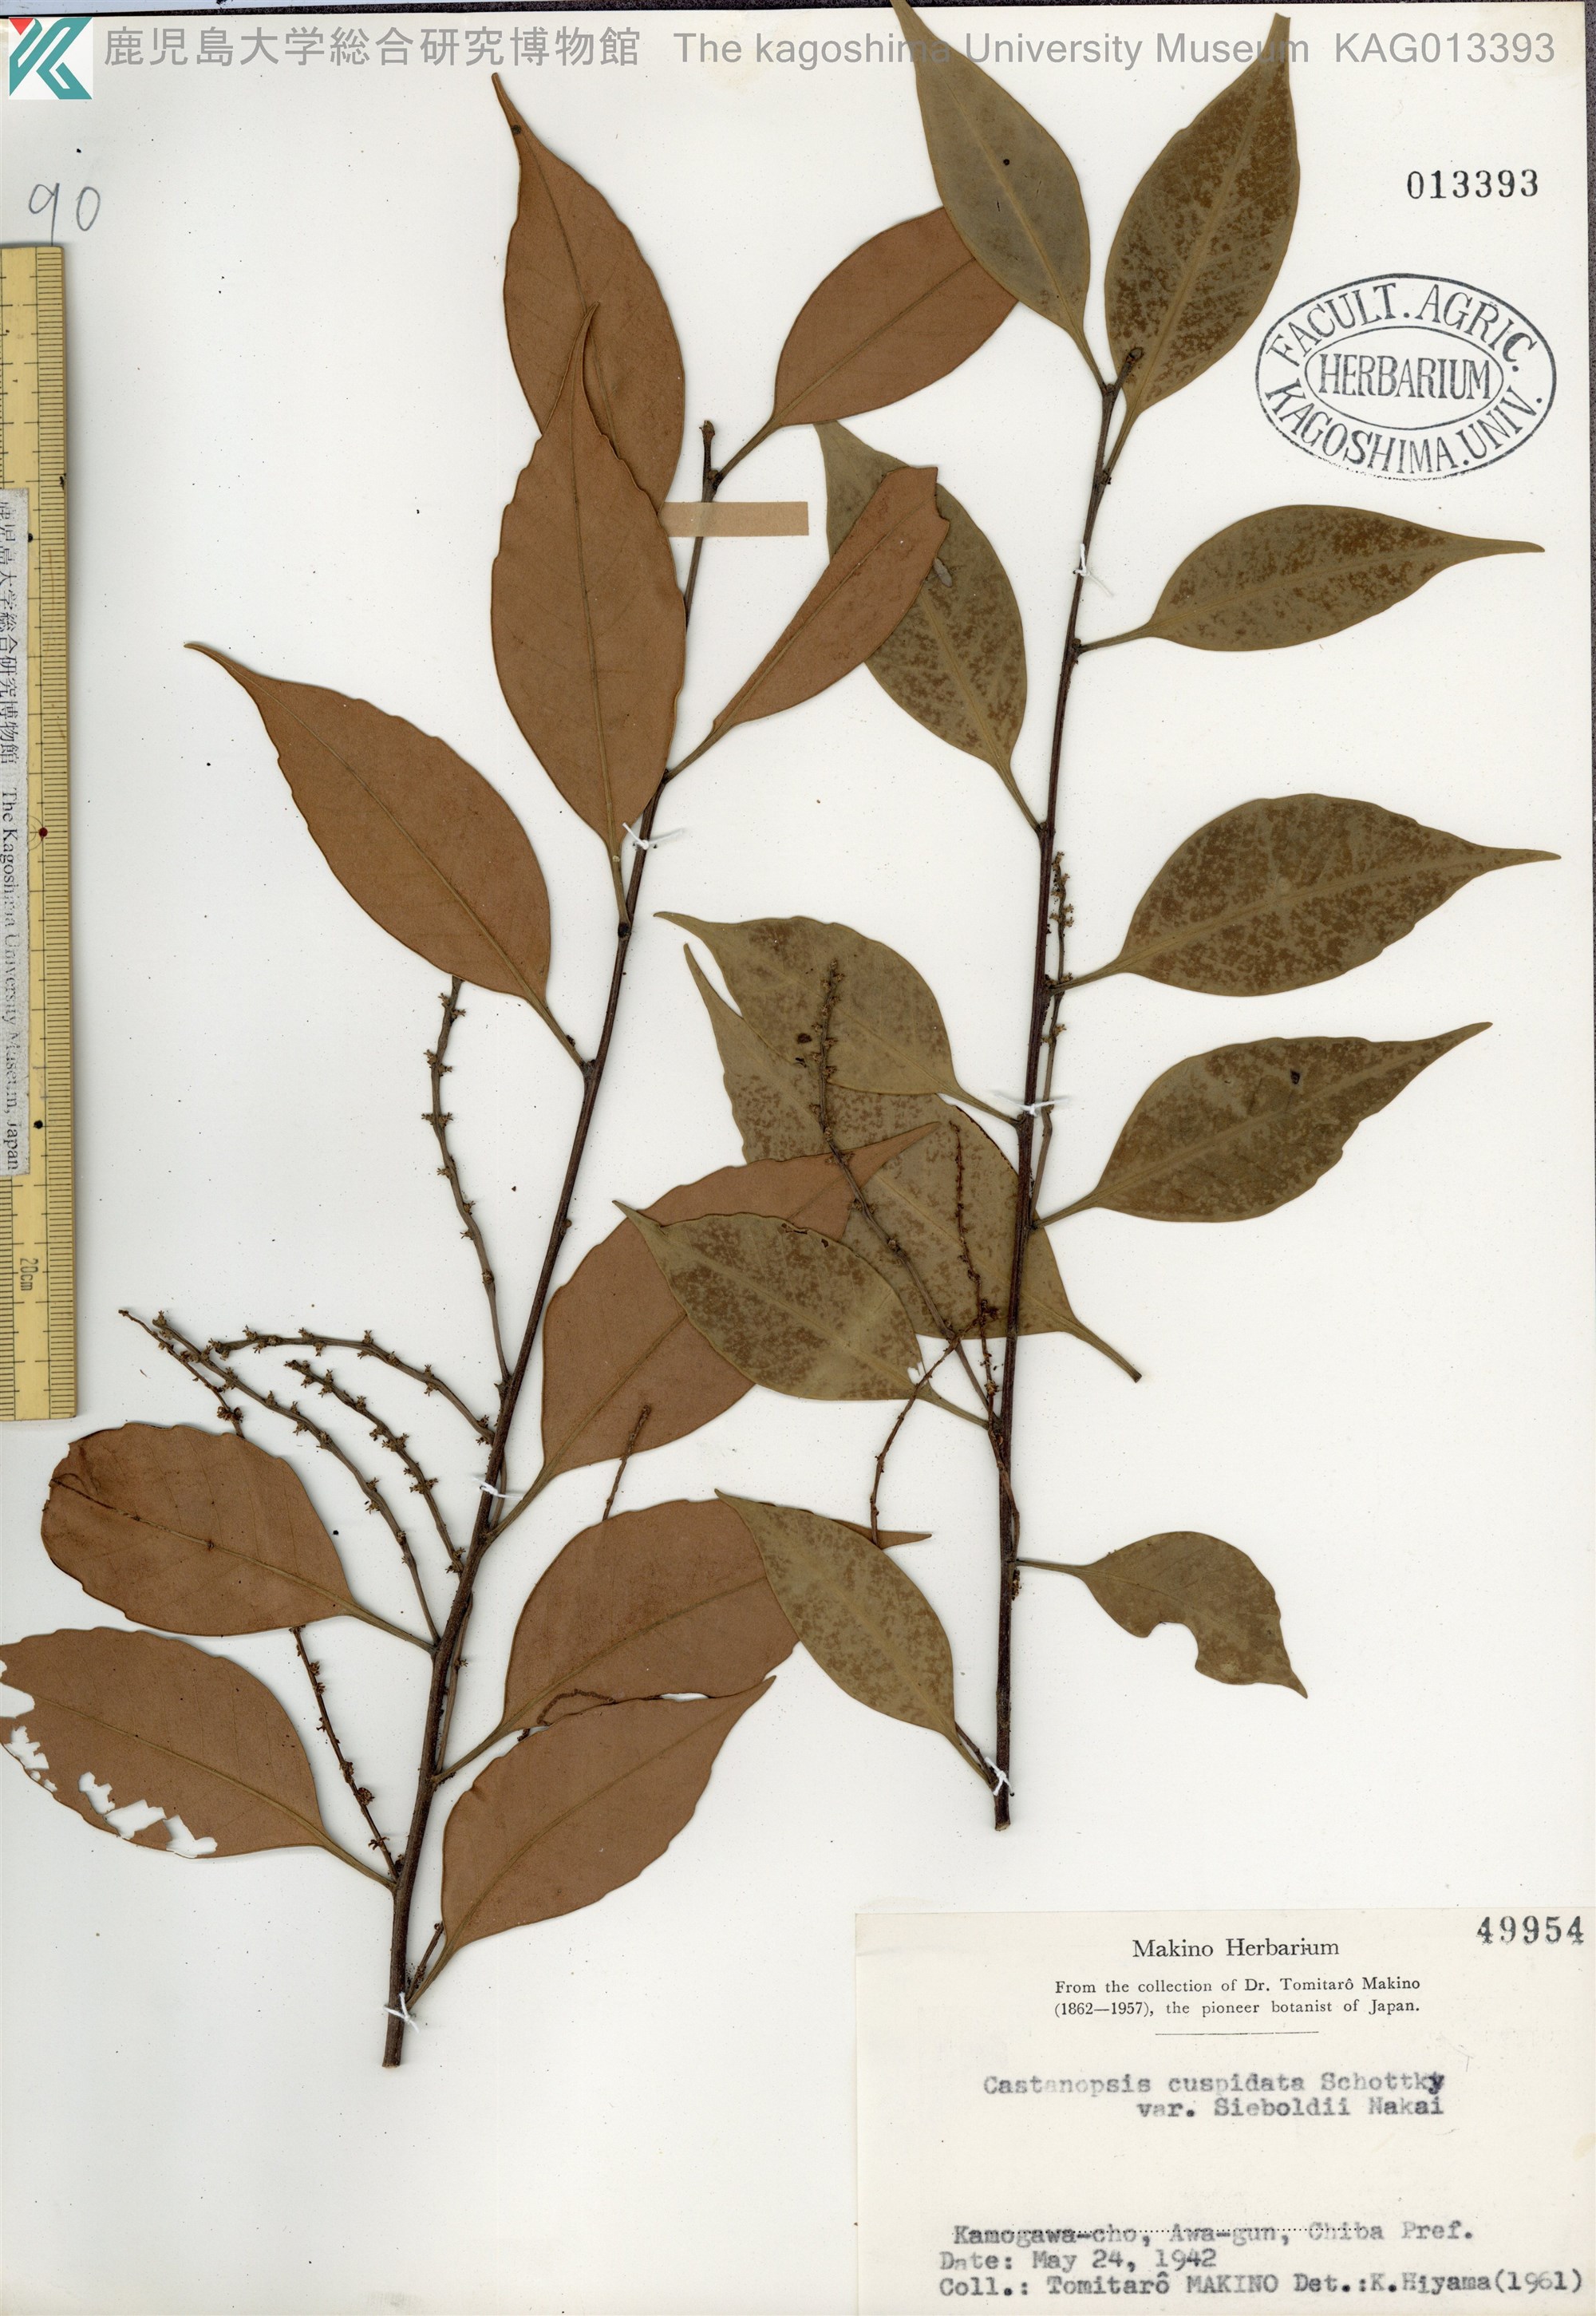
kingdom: Plantae
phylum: Tracheophyta
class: Magnoliopsida
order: Fagales
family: Fagaceae
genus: Castanopsis
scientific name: Castanopsis sieboldii
